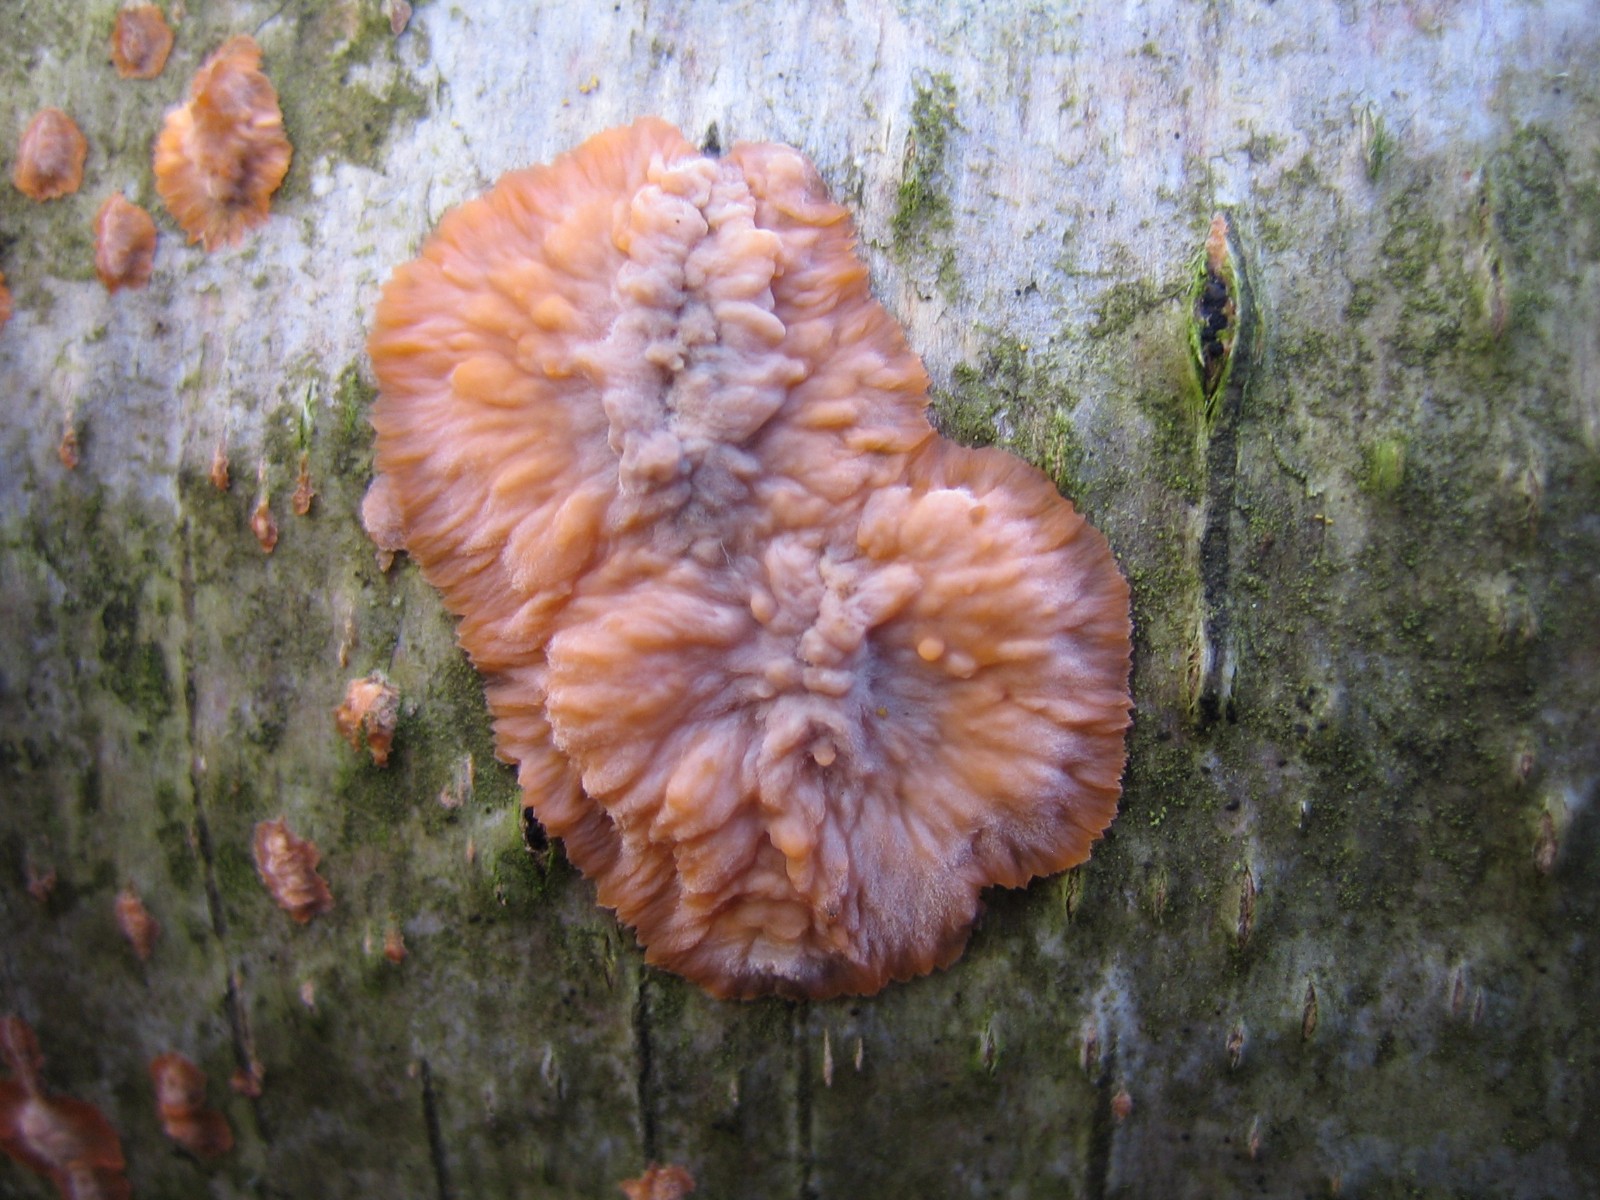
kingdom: Fungi
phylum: Basidiomycota
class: Agaricomycetes
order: Polyporales
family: Meruliaceae
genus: Phlebia
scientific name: Phlebia radiata
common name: stråle-åresvamp
